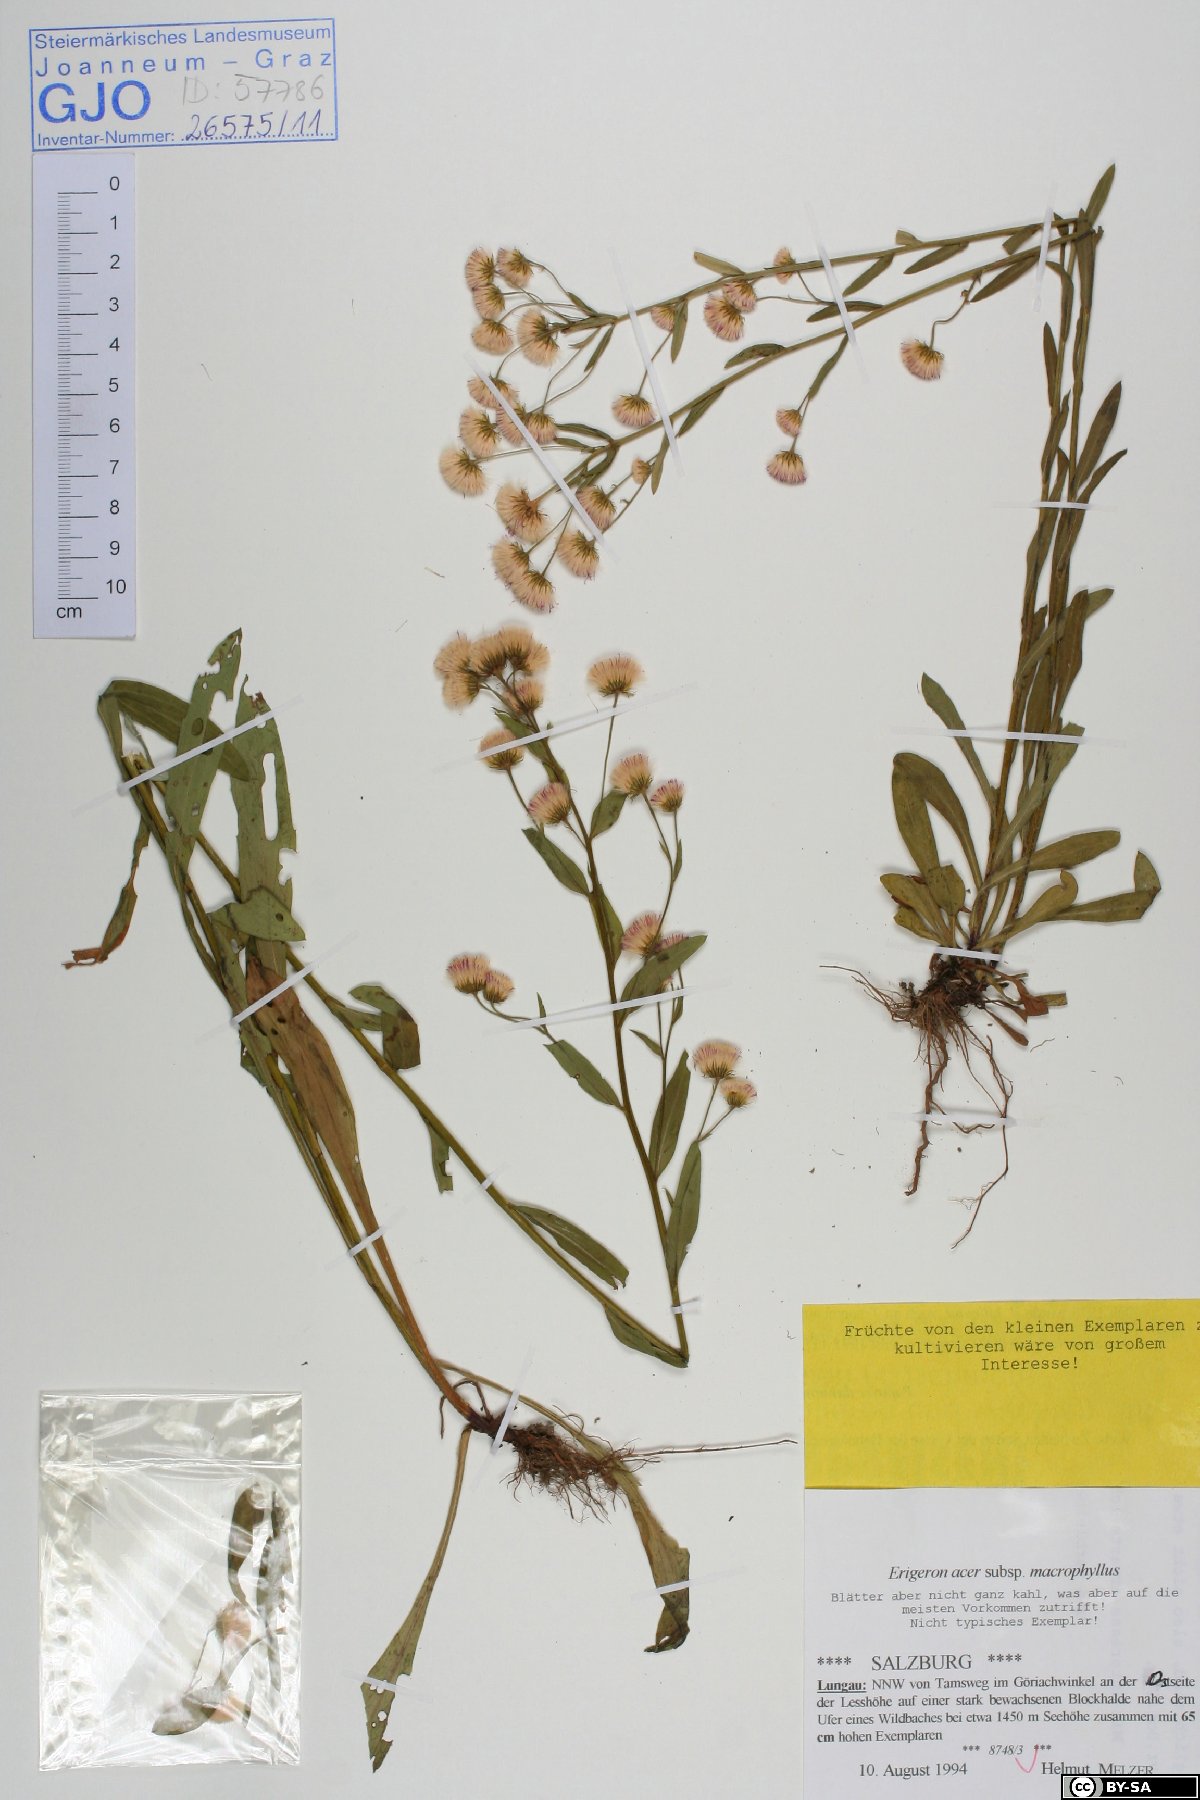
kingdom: Plantae
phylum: Tracheophyta
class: Magnoliopsida
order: Asterales
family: Asteraceae
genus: Erigeron
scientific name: Erigeron macrophyllus
